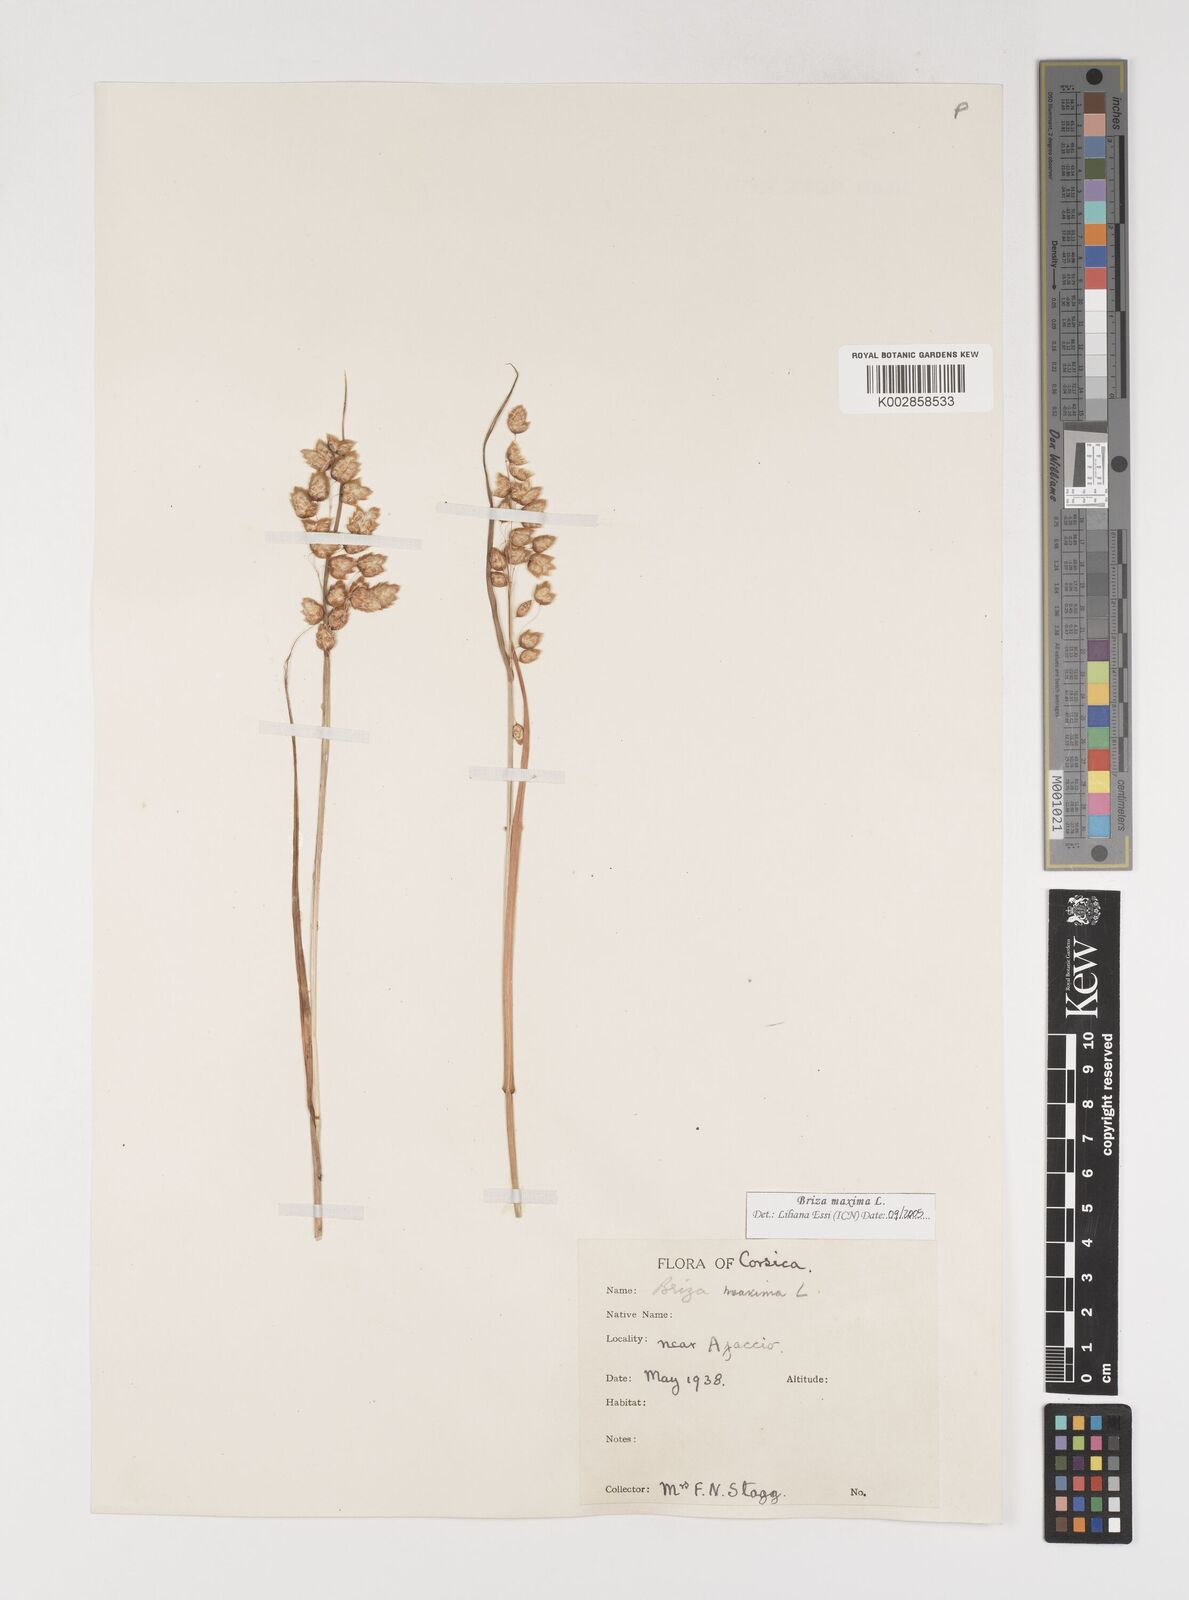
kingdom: Plantae
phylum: Tracheophyta
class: Liliopsida
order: Poales
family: Poaceae
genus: Briza
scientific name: Briza maxima
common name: Big quakinggrass
